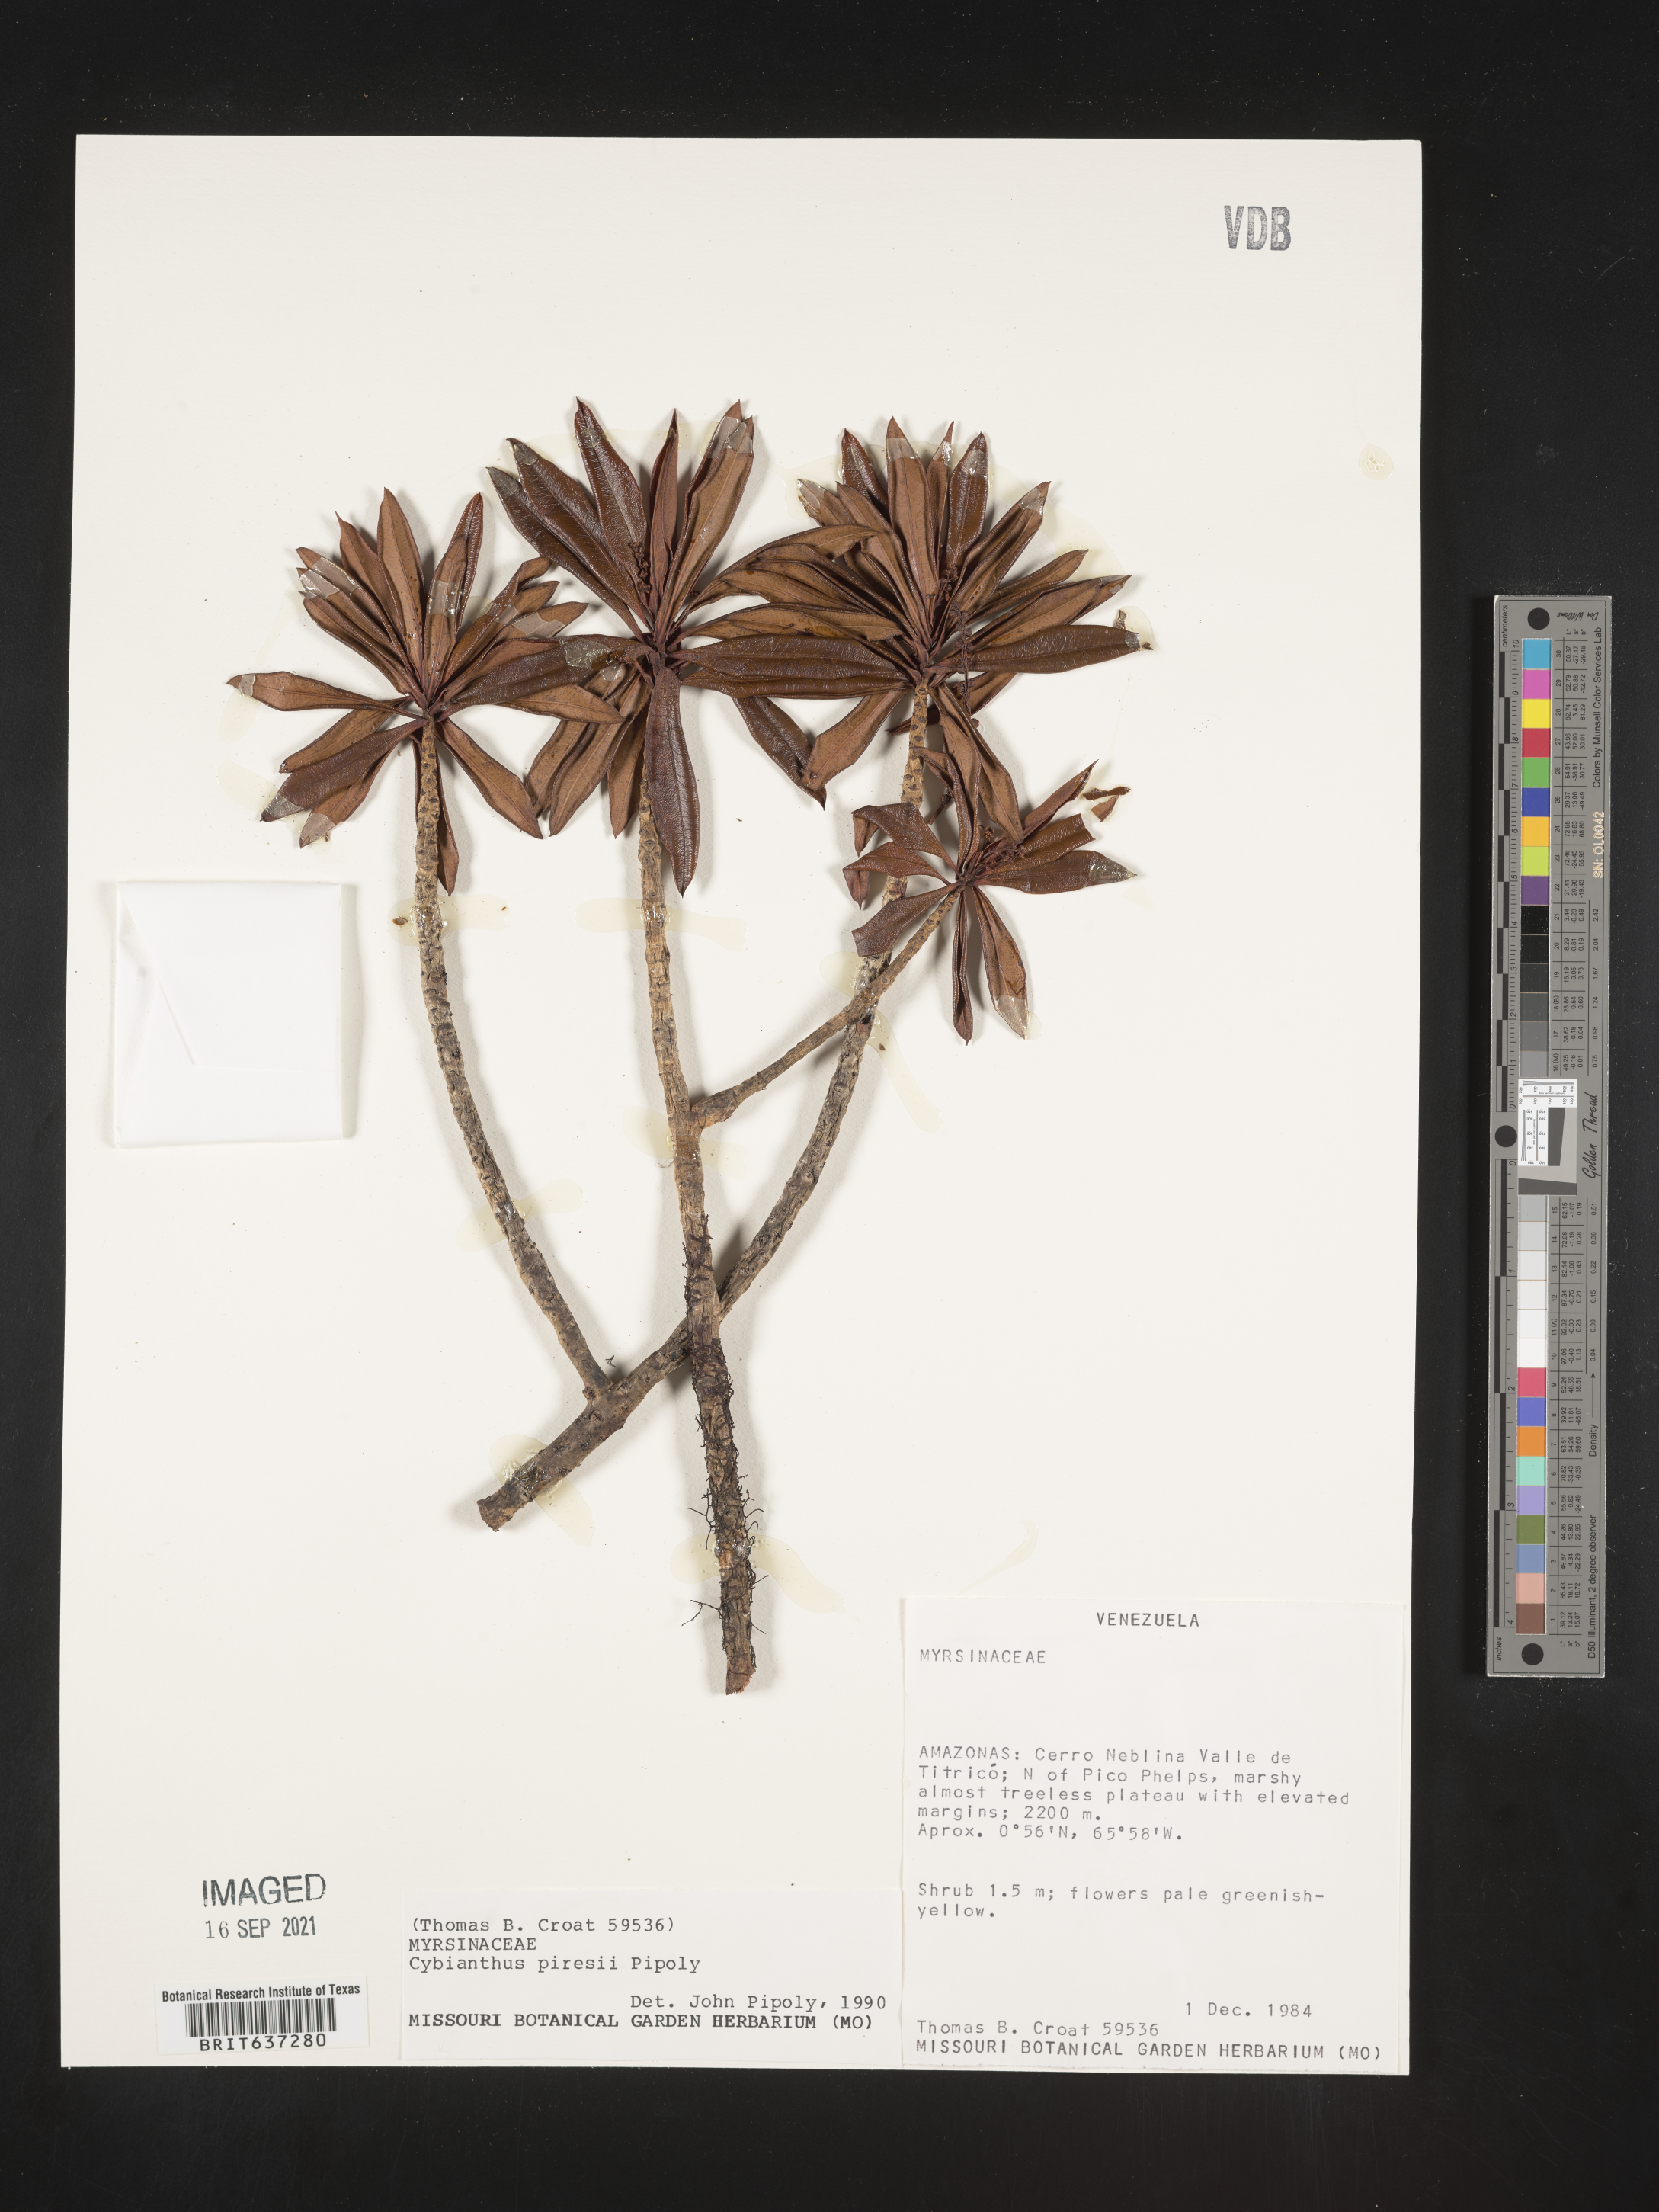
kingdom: Plantae
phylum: Tracheophyta
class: Magnoliopsida
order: Ericales
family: Primulaceae
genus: Cybianthus
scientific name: Cybianthus
